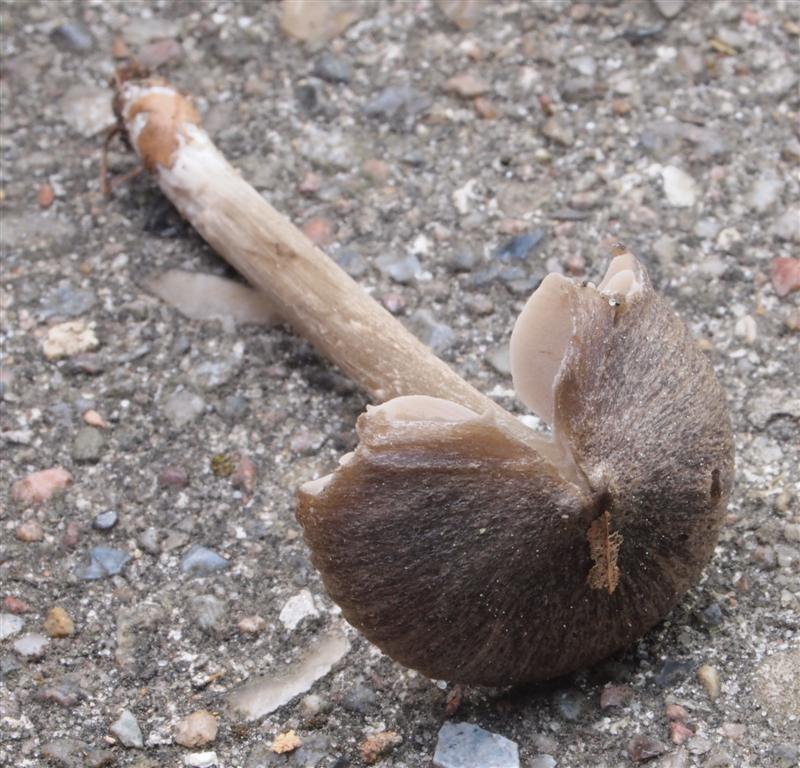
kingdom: Fungi
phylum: Basidiomycota
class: Agaricomycetes
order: Agaricales
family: Entolomataceae
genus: Entoloma
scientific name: Entoloma
